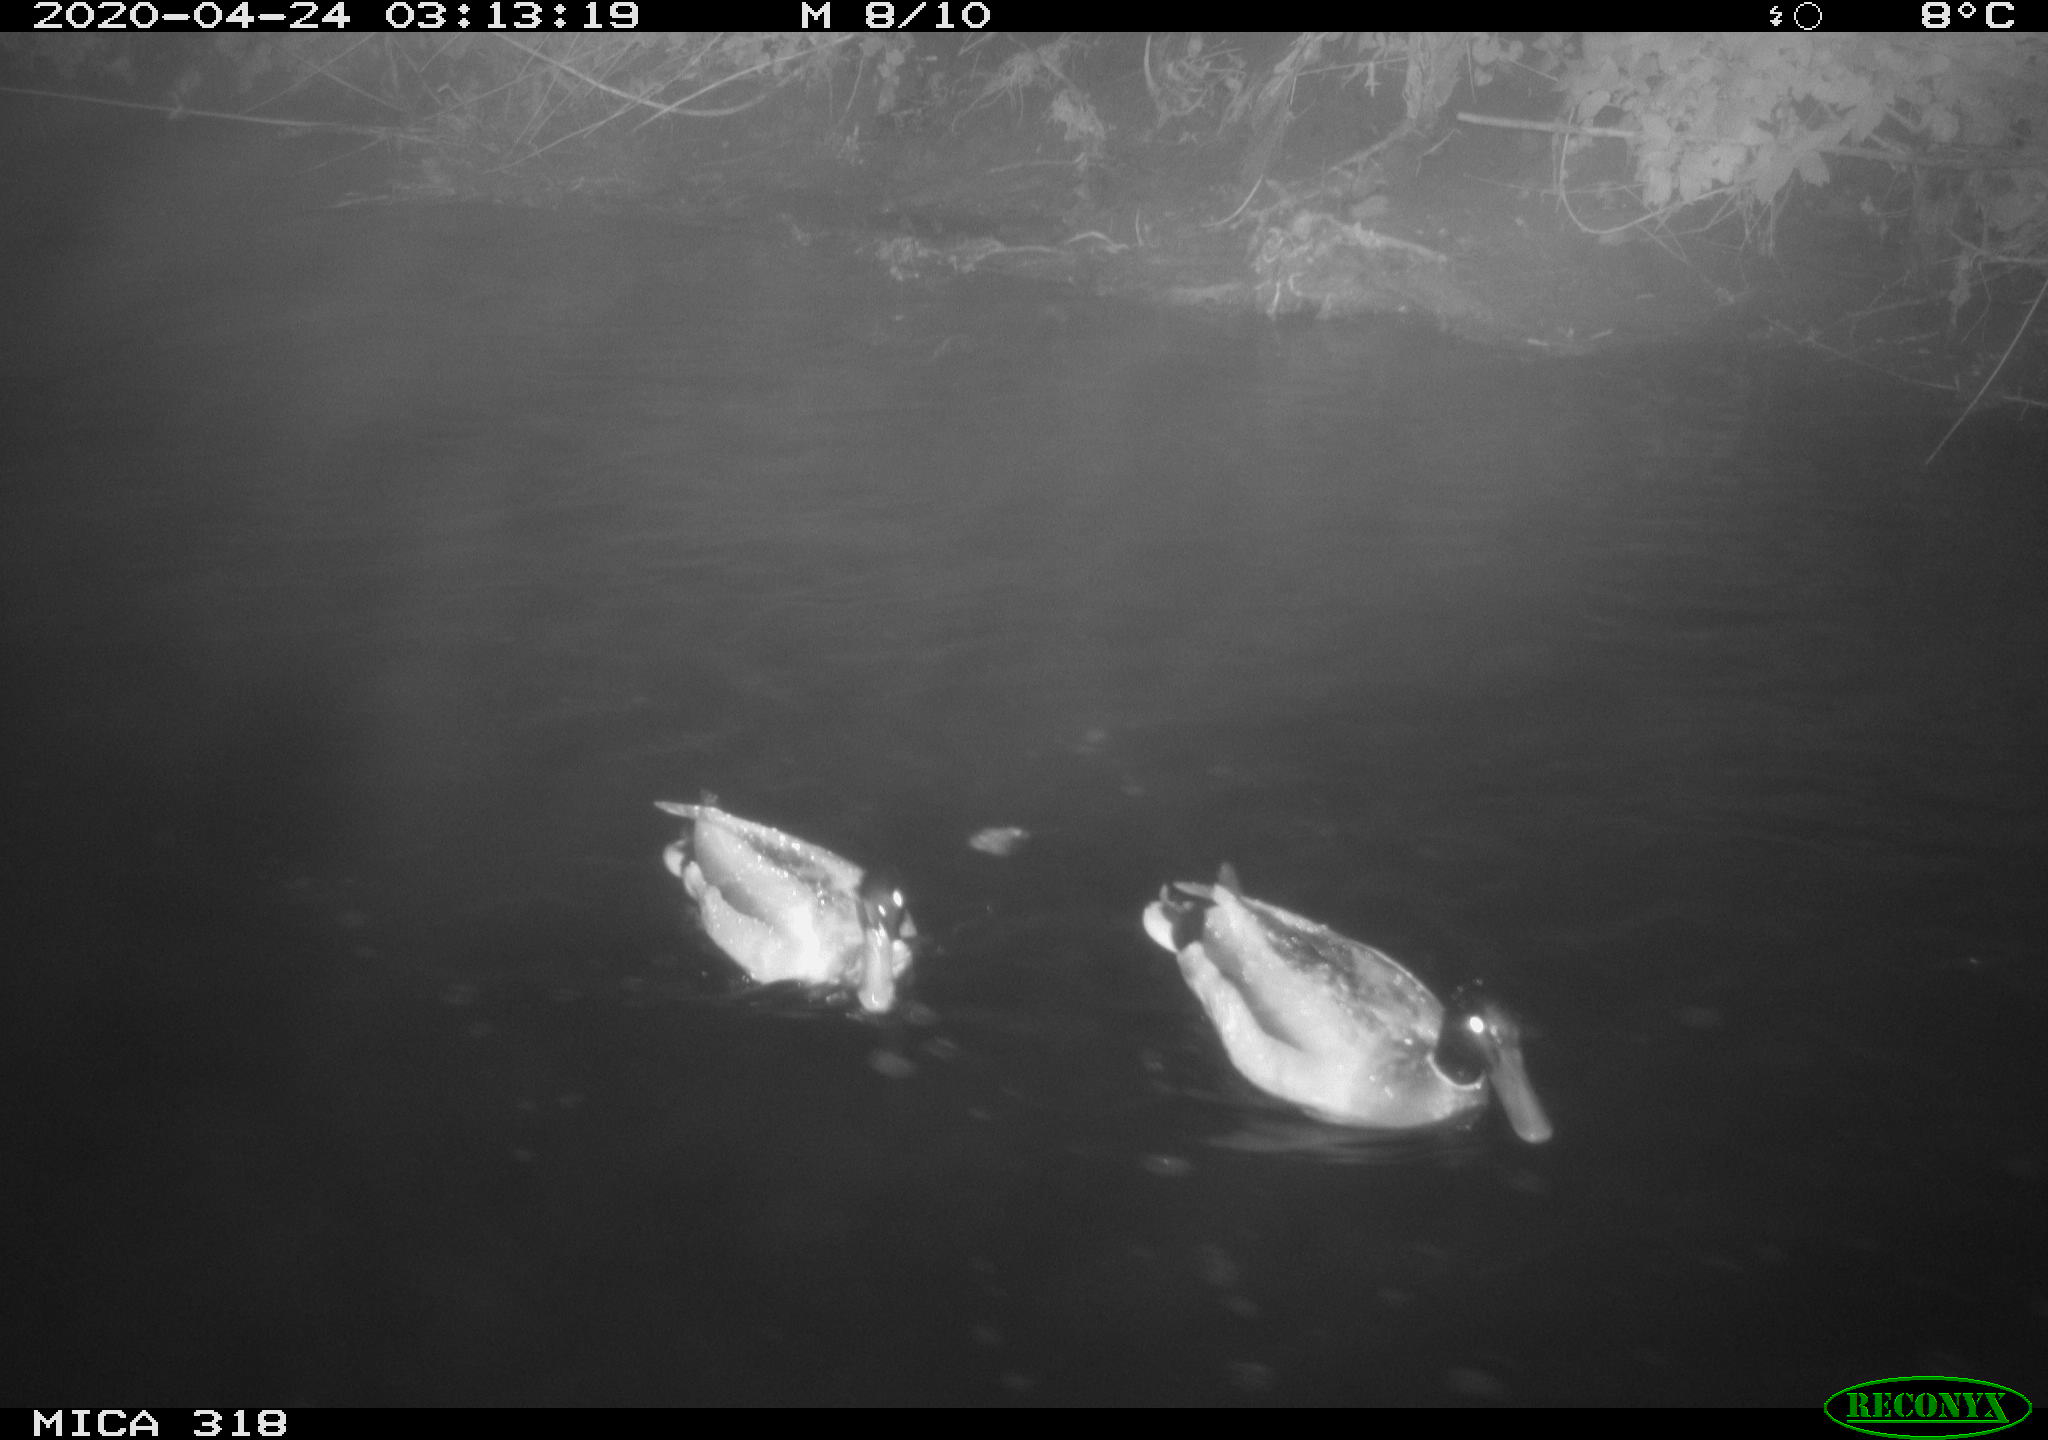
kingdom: Animalia
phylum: Chordata
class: Aves
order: Anseriformes
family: Anatidae
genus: Anas
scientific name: Anas platyrhynchos
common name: Mallard
